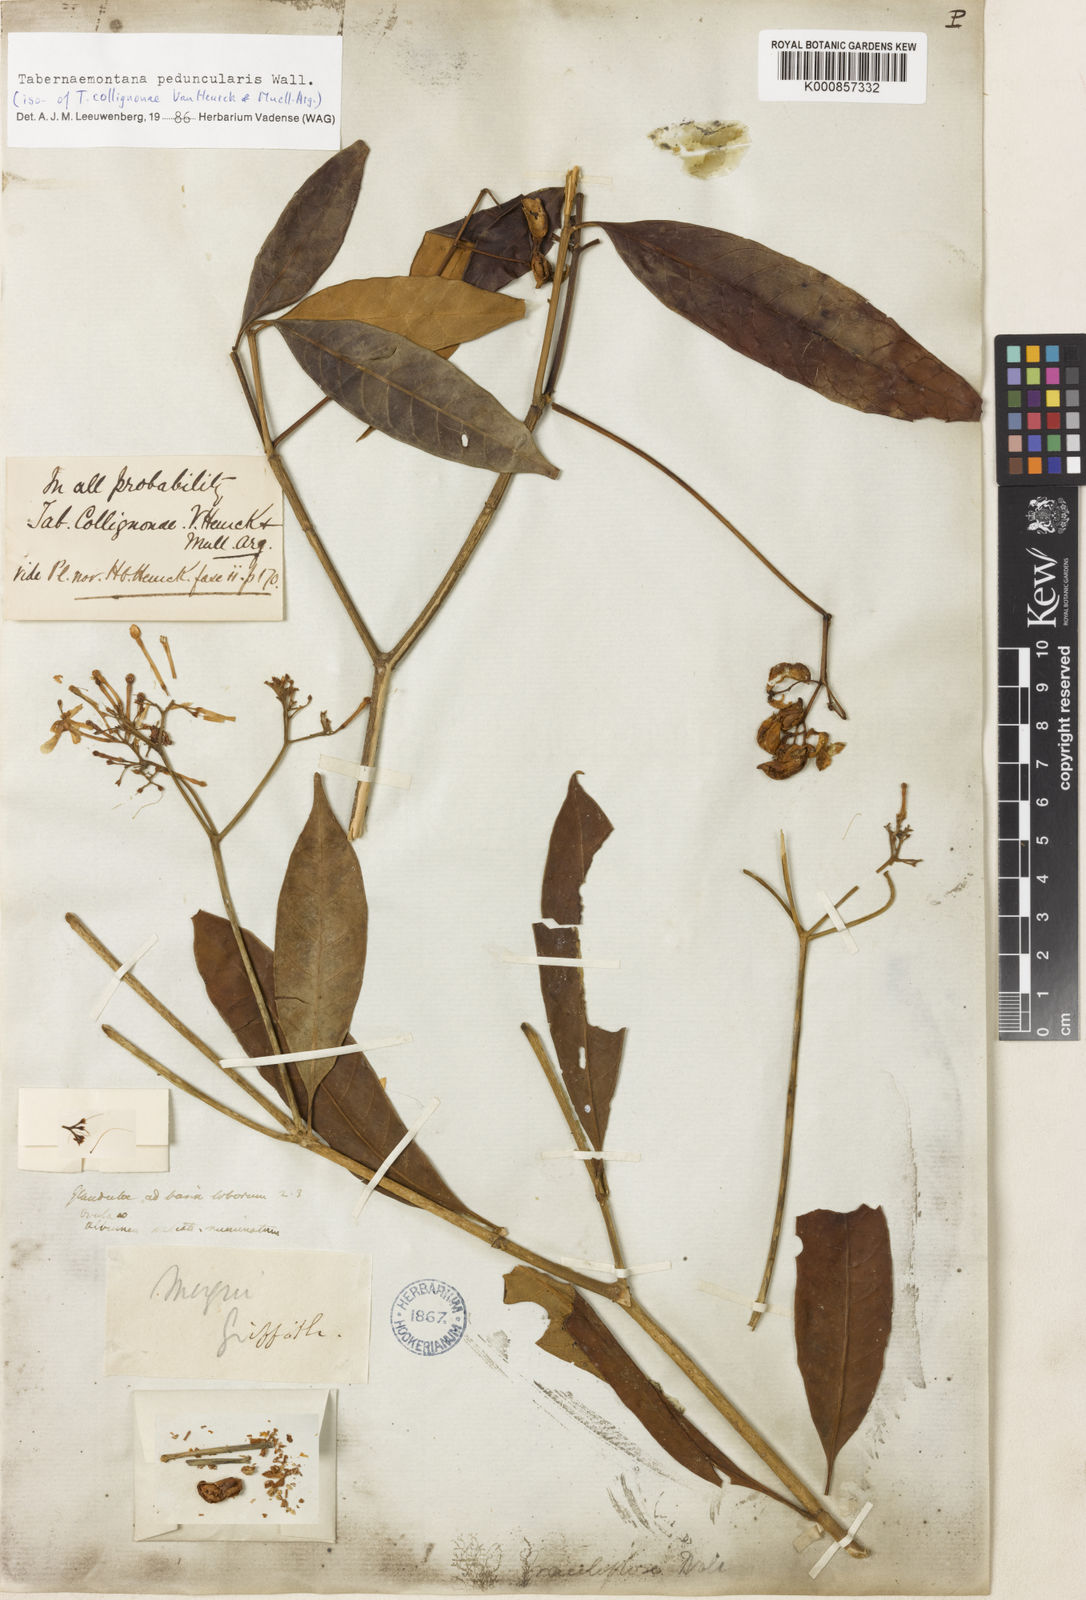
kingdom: Plantae
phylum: Tracheophyta
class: Magnoliopsida
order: Gentianales
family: Apocynaceae
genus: Tabernaemontana
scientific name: Tabernaemontana peduncularis
